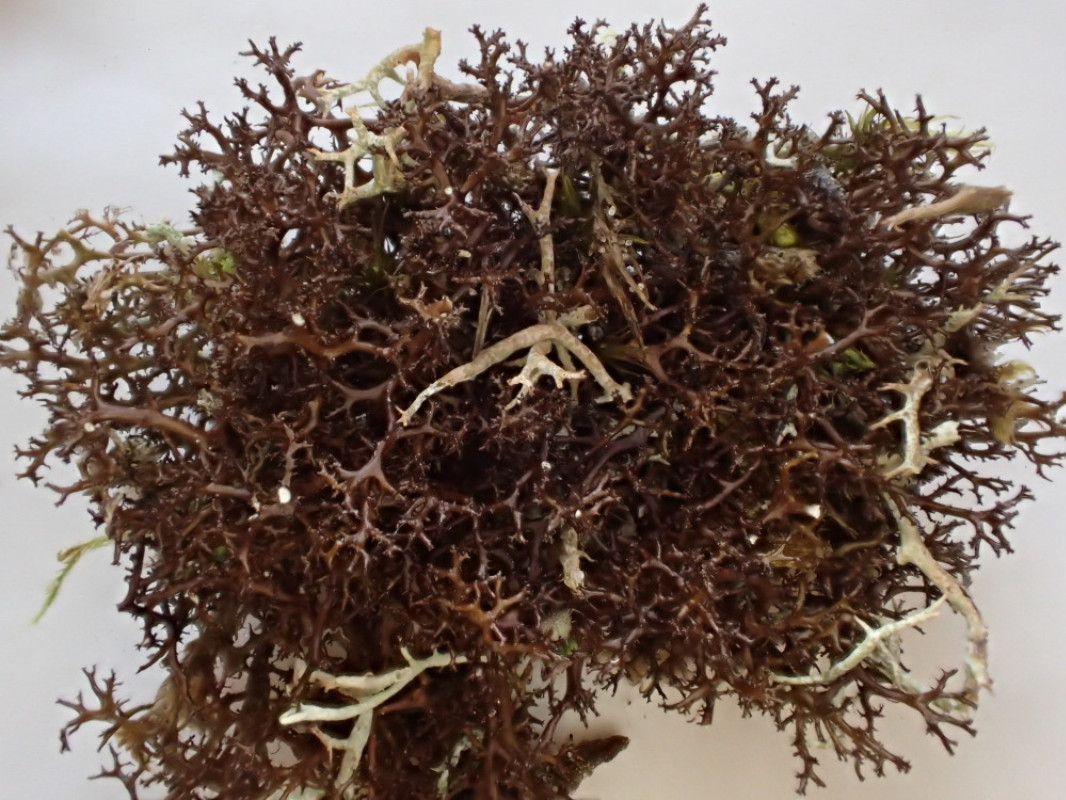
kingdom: Fungi
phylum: Ascomycota
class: Lecanoromycetes
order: Lecanorales
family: Parmeliaceae
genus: Cetraria
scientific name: Cetraria muricata
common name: tue-tjørnelav
